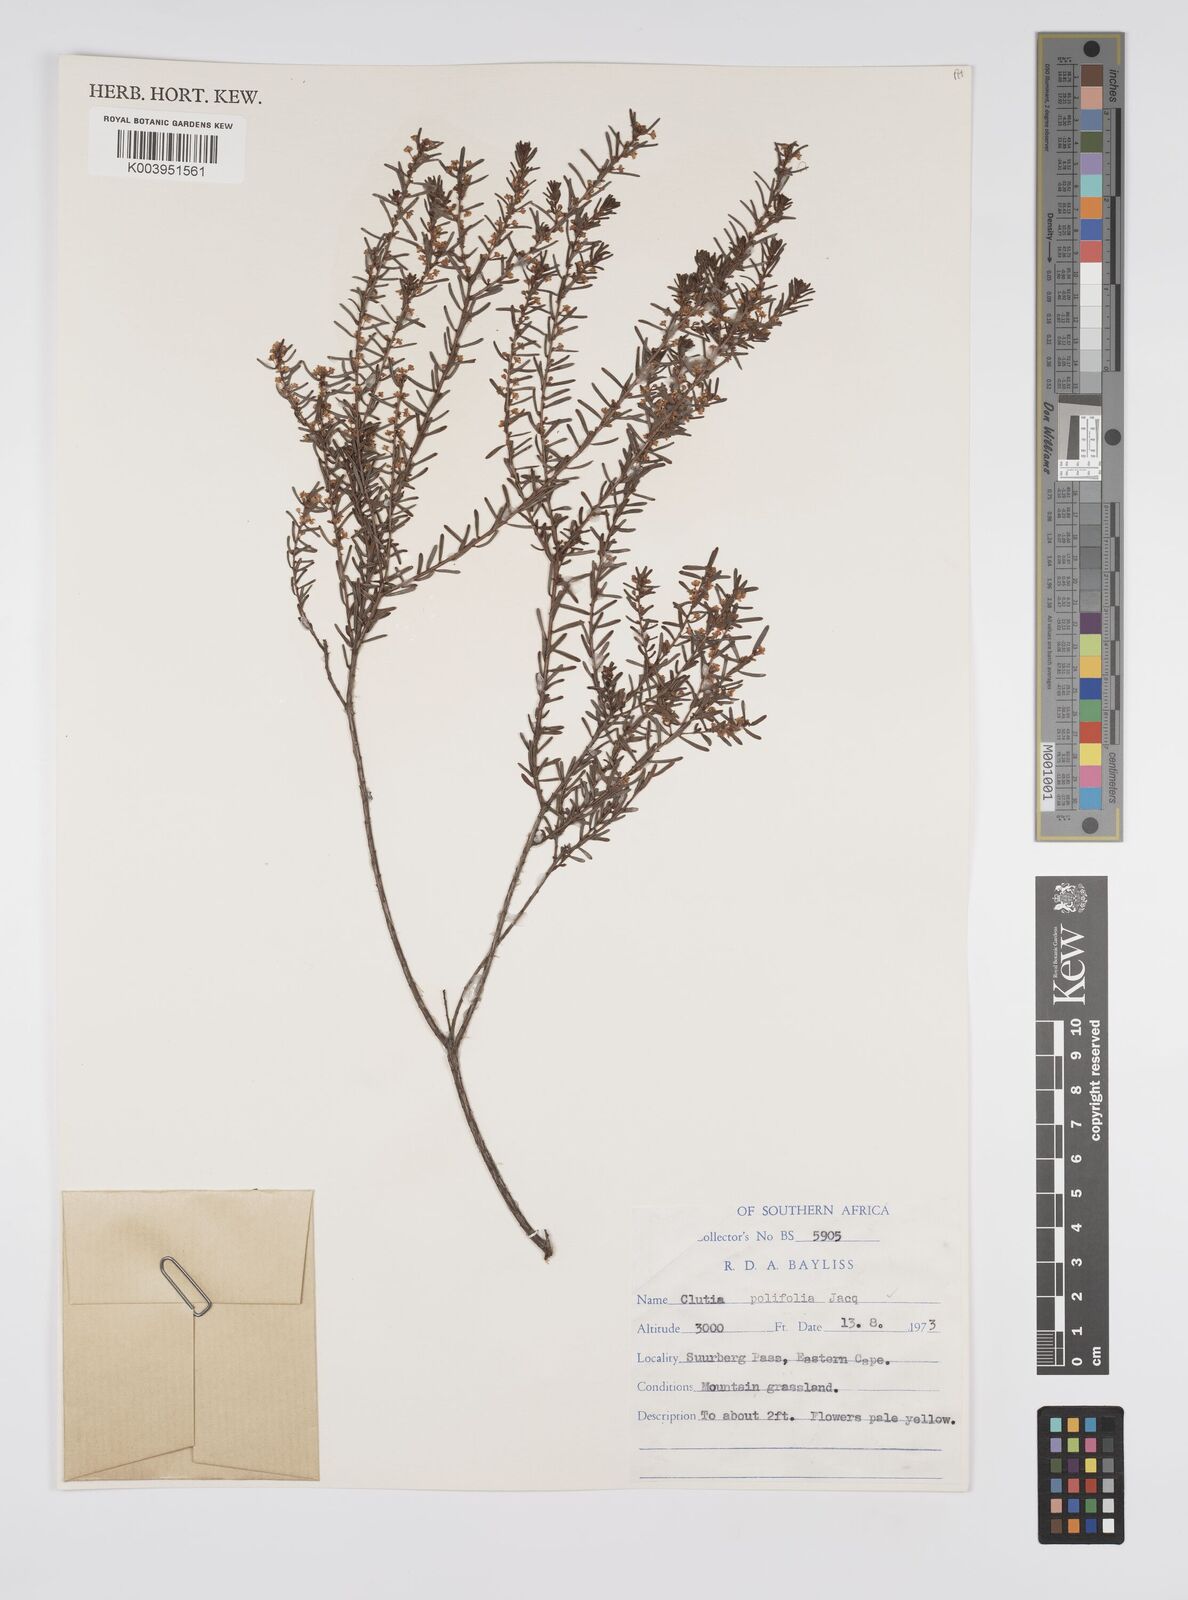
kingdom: Plantae
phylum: Tracheophyta
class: Magnoliopsida
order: Malpighiales
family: Peraceae
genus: Clutia
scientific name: Clutia
